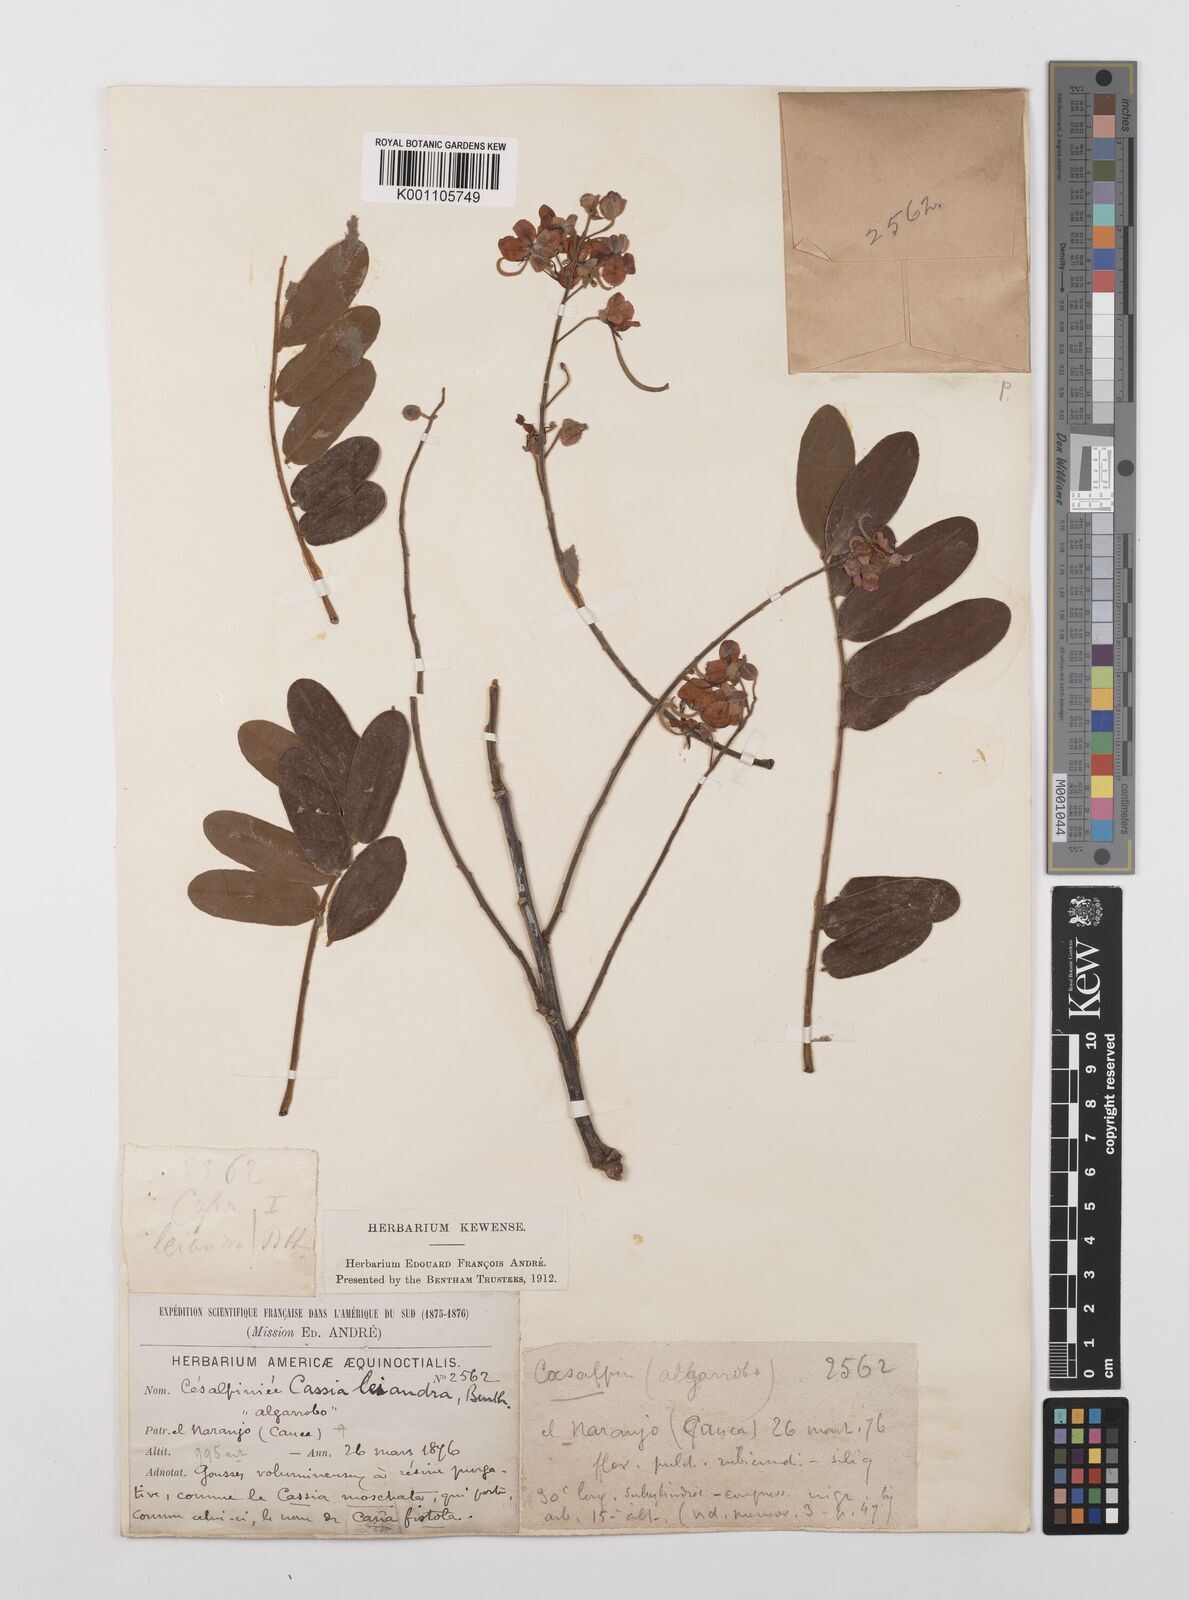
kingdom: Plantae
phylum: Tracheophyta
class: Magnoliopsida
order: Fabales
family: Fabaceae
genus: Cassia
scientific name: Cassia grandis
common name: Appleblossom cassia
